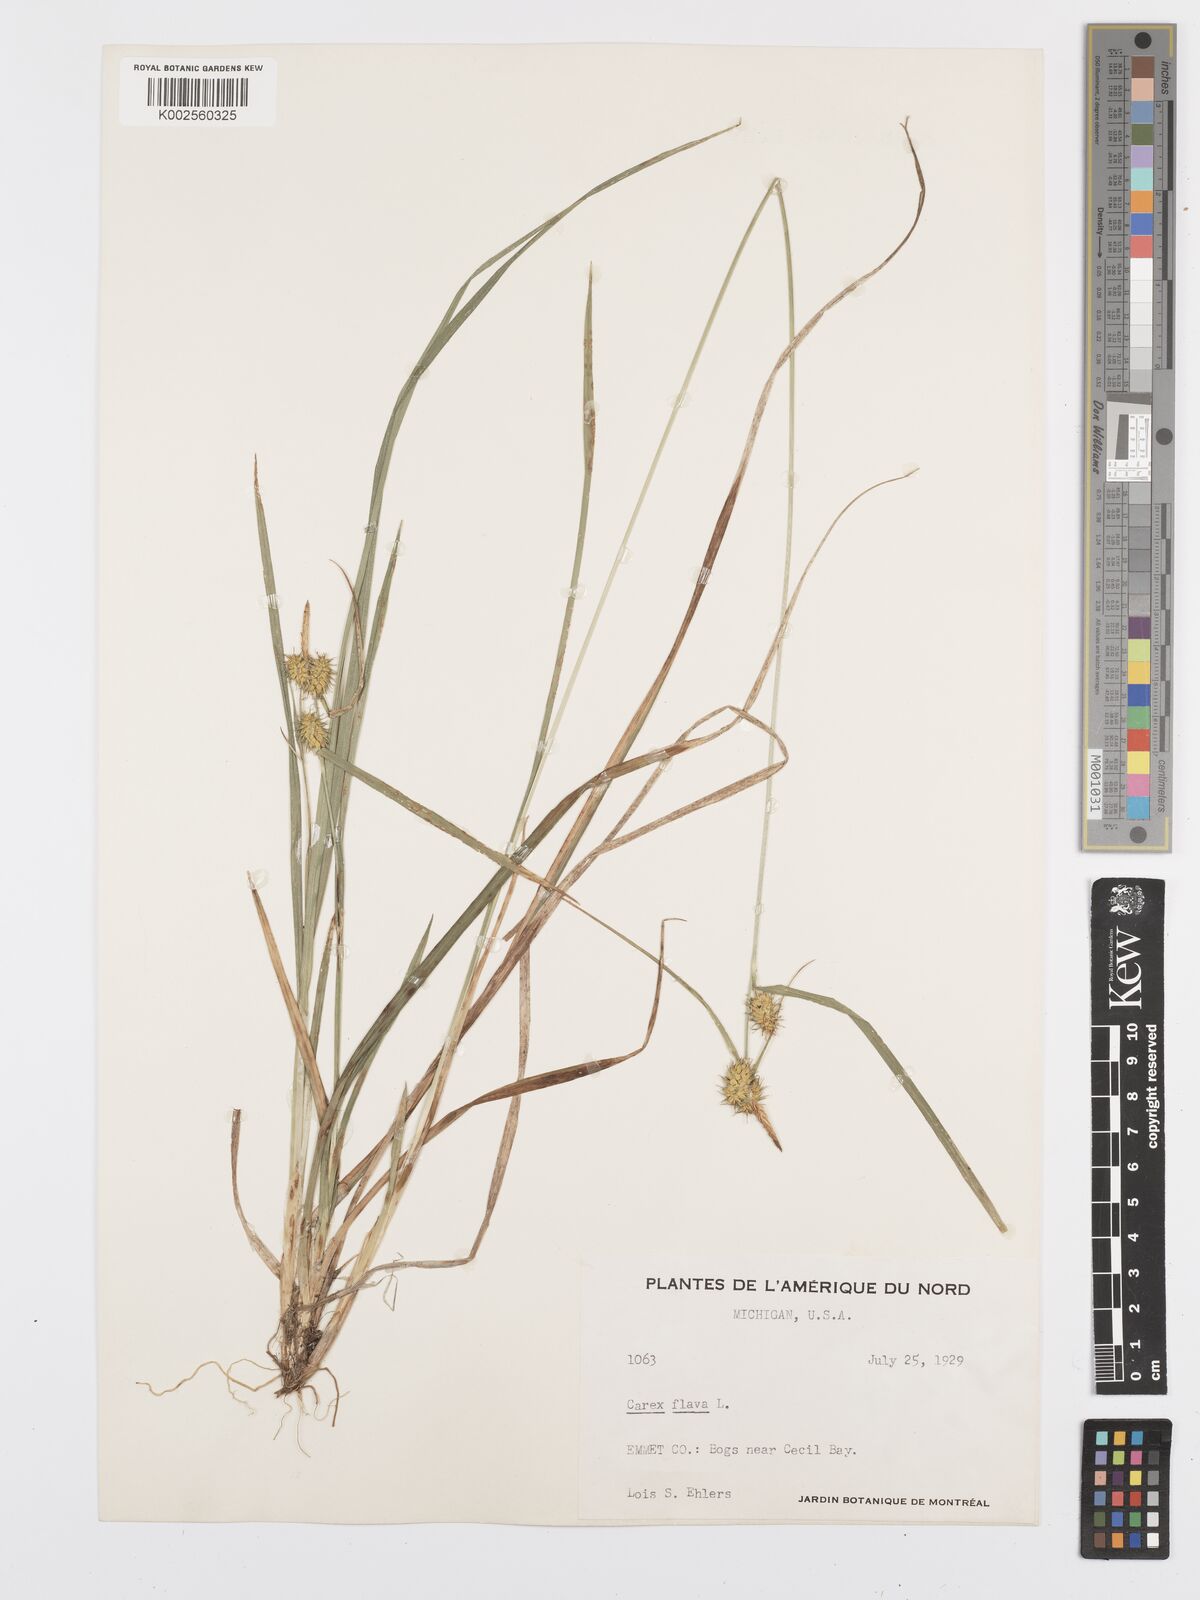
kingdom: Plantae
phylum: Tracheophyta
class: Liliopsida
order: Poales
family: Cyperaceae
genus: Carex
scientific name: Carex flava
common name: Large yellow-sedge
